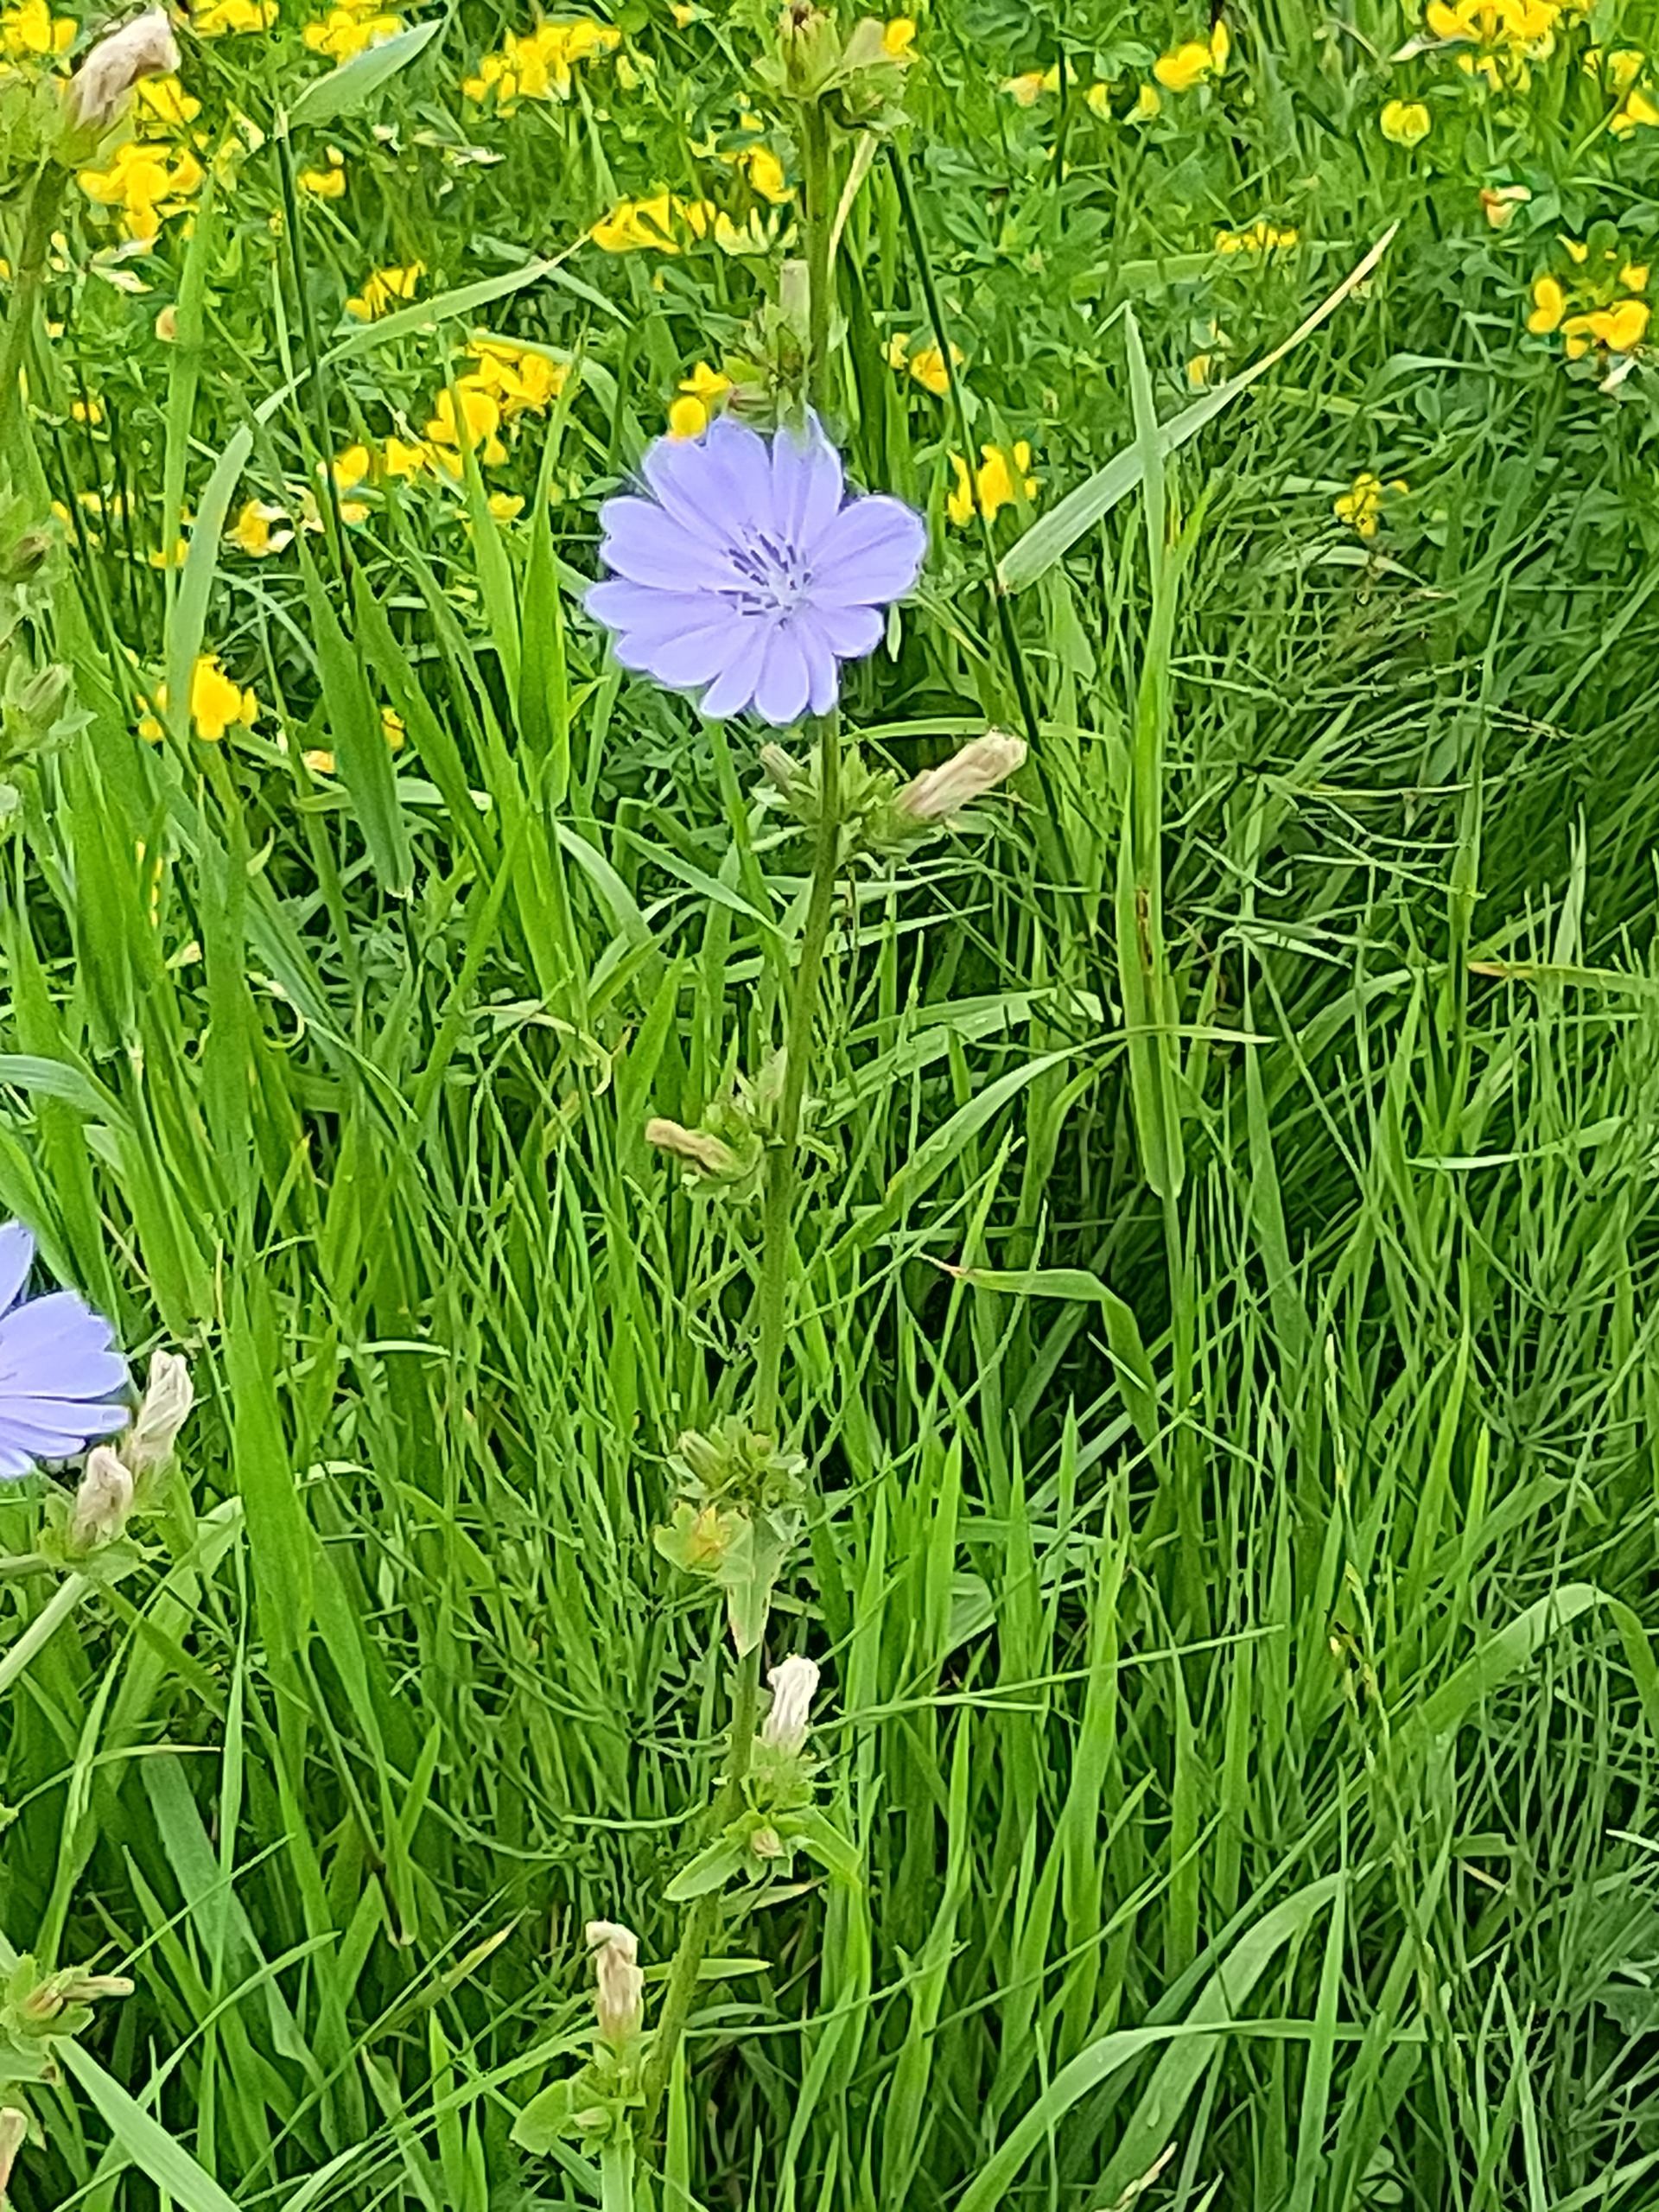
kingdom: Plantae
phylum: Tracheophyta
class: Magnoliopsida
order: Asterales
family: Asteraceae
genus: Cichorium
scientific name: Cichorium intybus
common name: Cikorie
